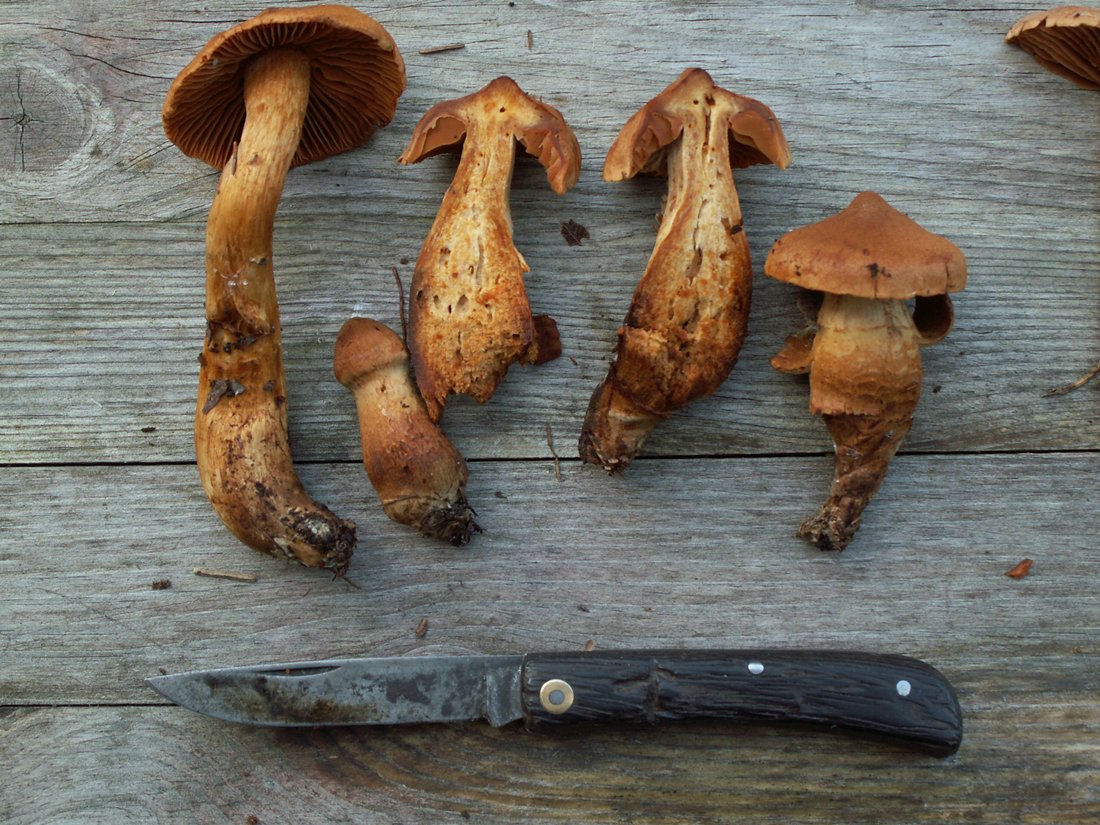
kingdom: Fungi
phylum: Basidiomycota
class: Agaricomycetes
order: Agaricales
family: Cortinariaceae
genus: Cortinarius
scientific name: Cortinarius rubellus
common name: puklet gift-slørhat
